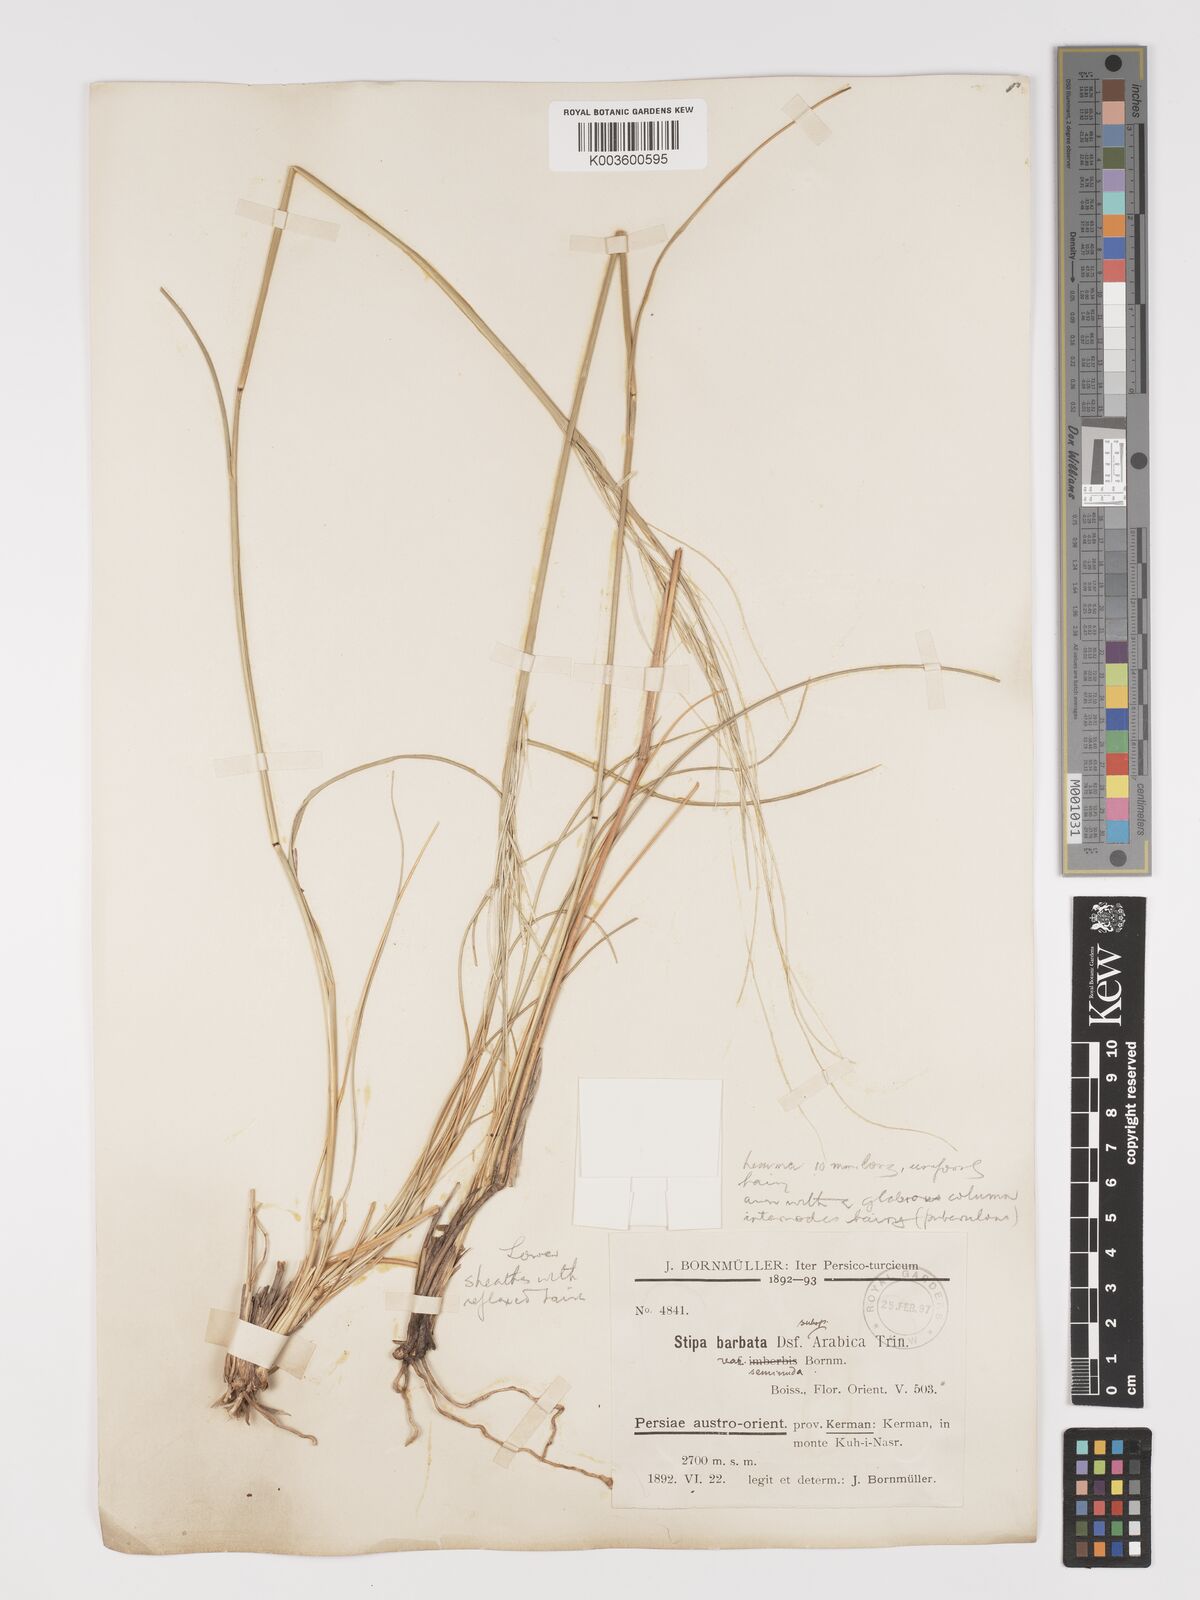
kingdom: Plantae
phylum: Tracheophyta
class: Liliopsida
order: Poales
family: Poaceae
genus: Stipa
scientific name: Stipa barbata
